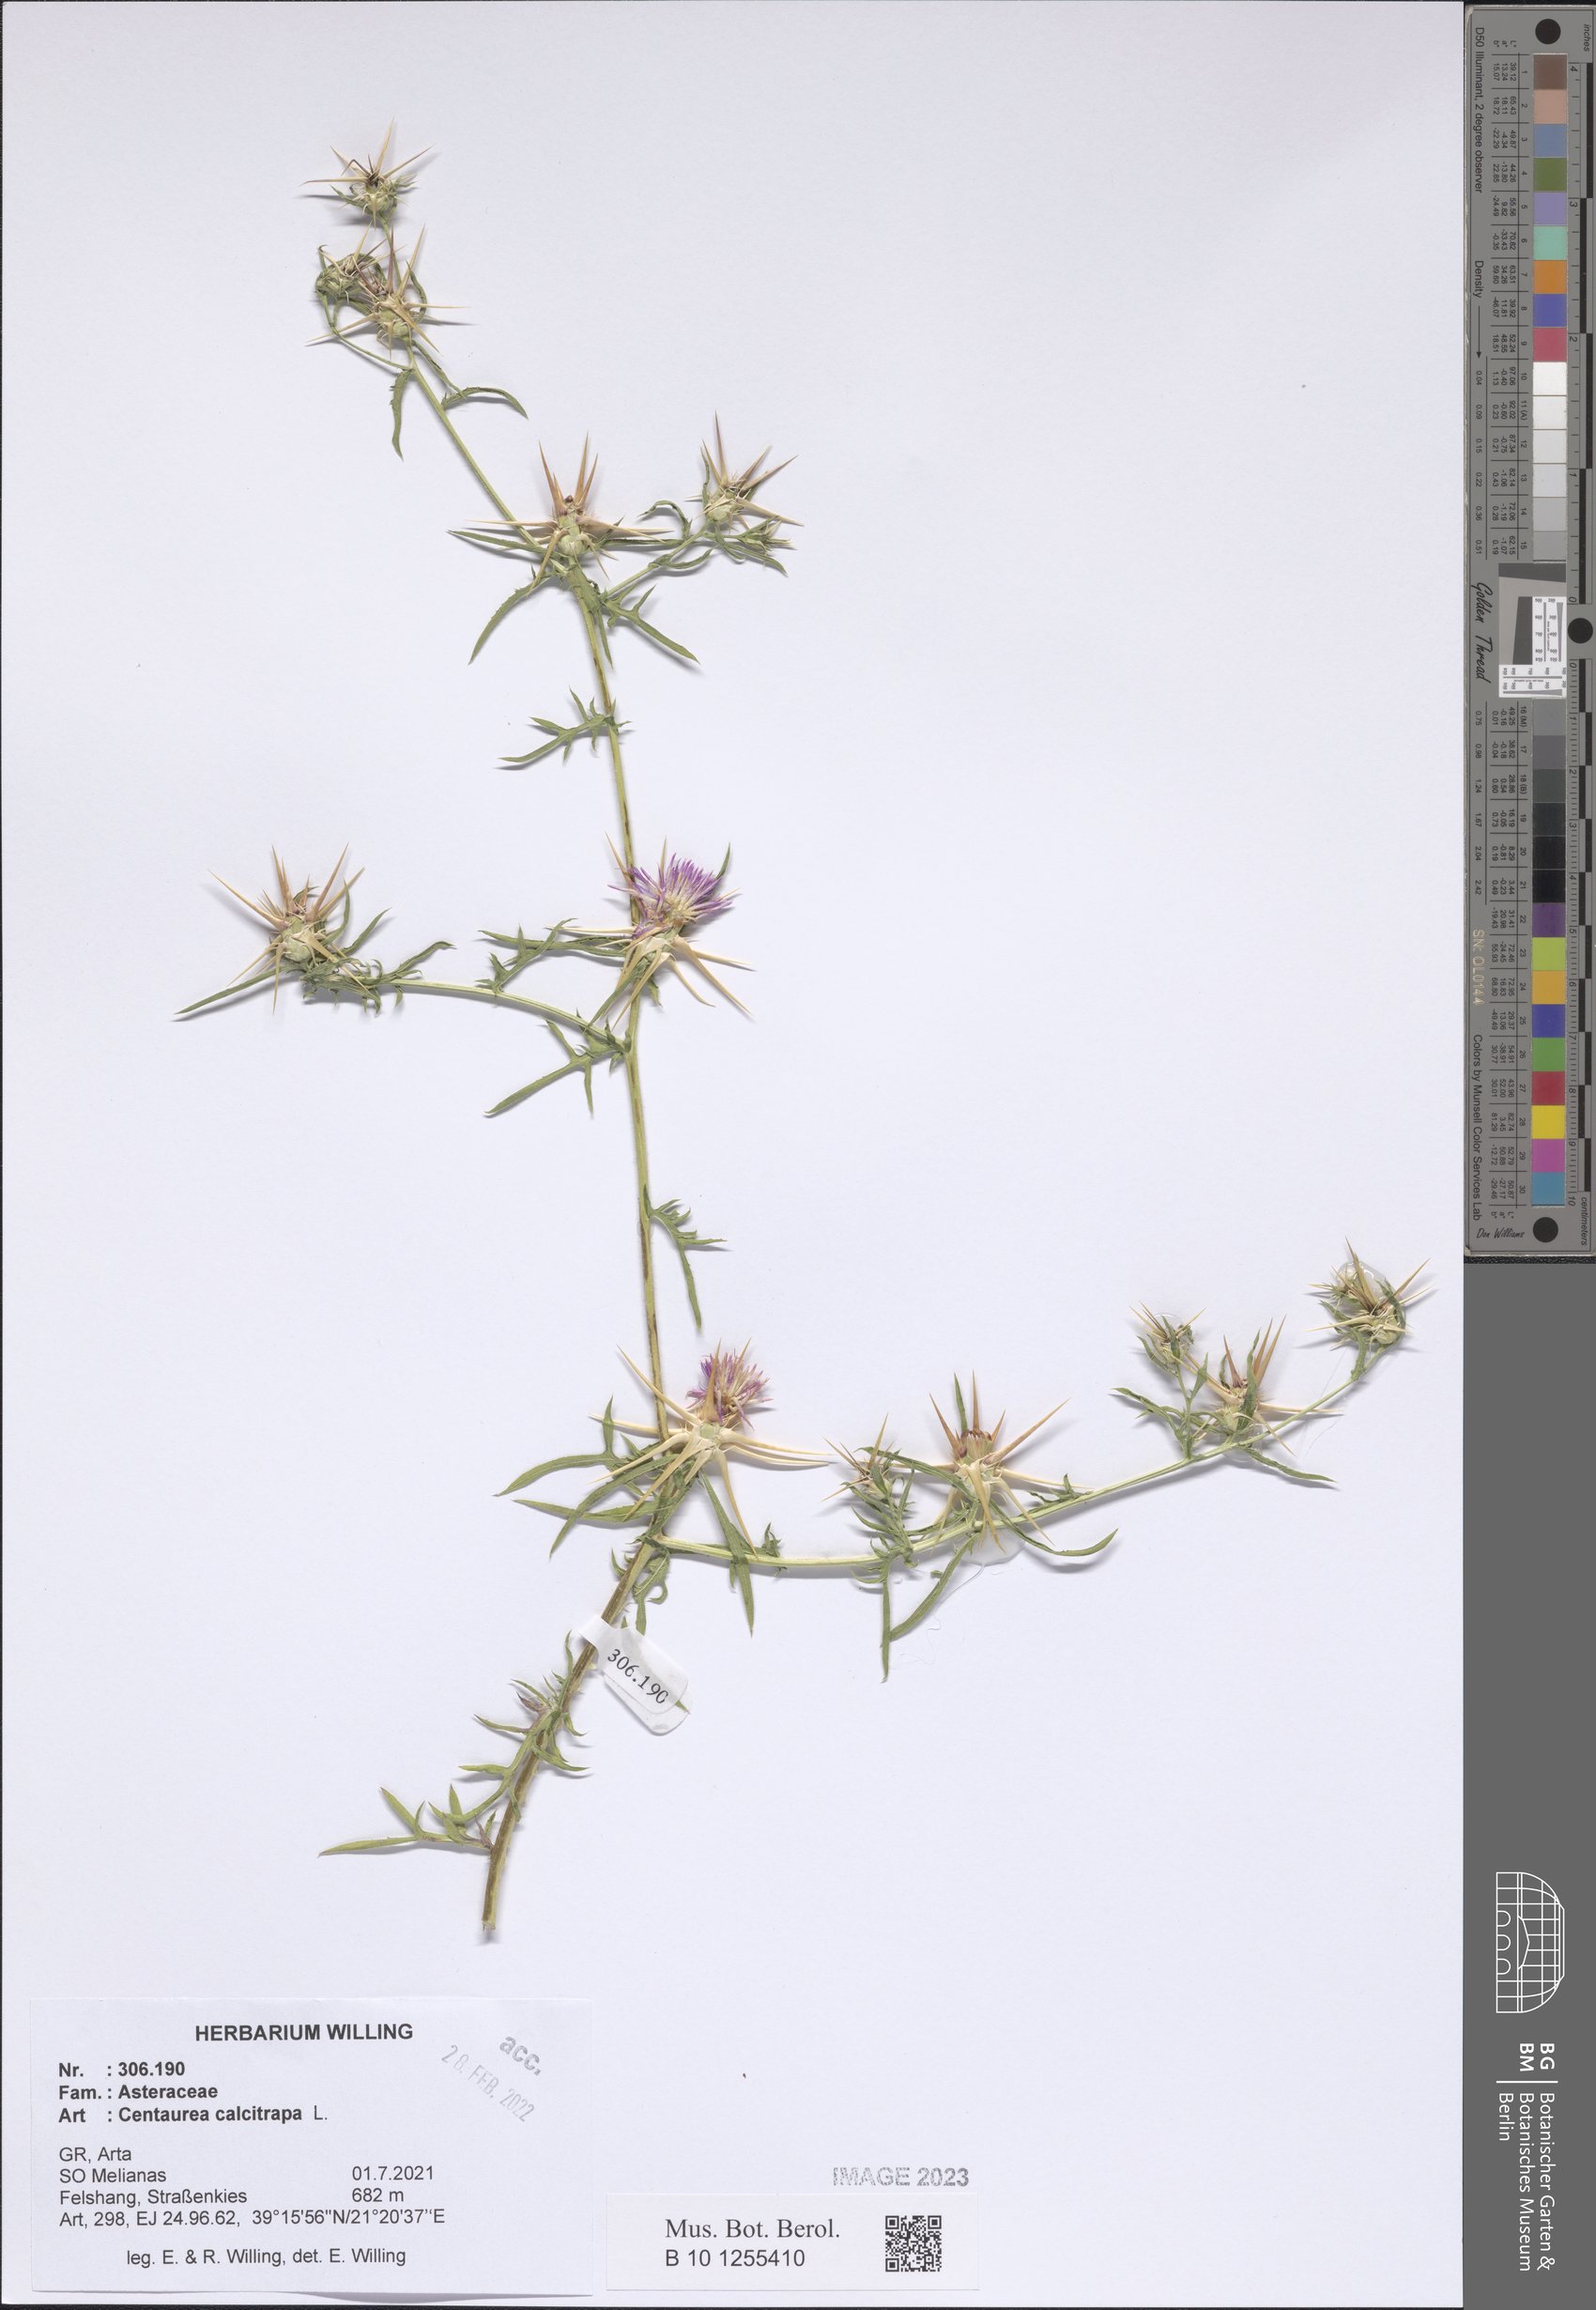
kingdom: Plantae
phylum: Tracheophyta
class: Magnoliopsida
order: Asterales
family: Asteraceae
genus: Centaurea
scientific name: Centaurea calcitrapa
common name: Red star-thistle
